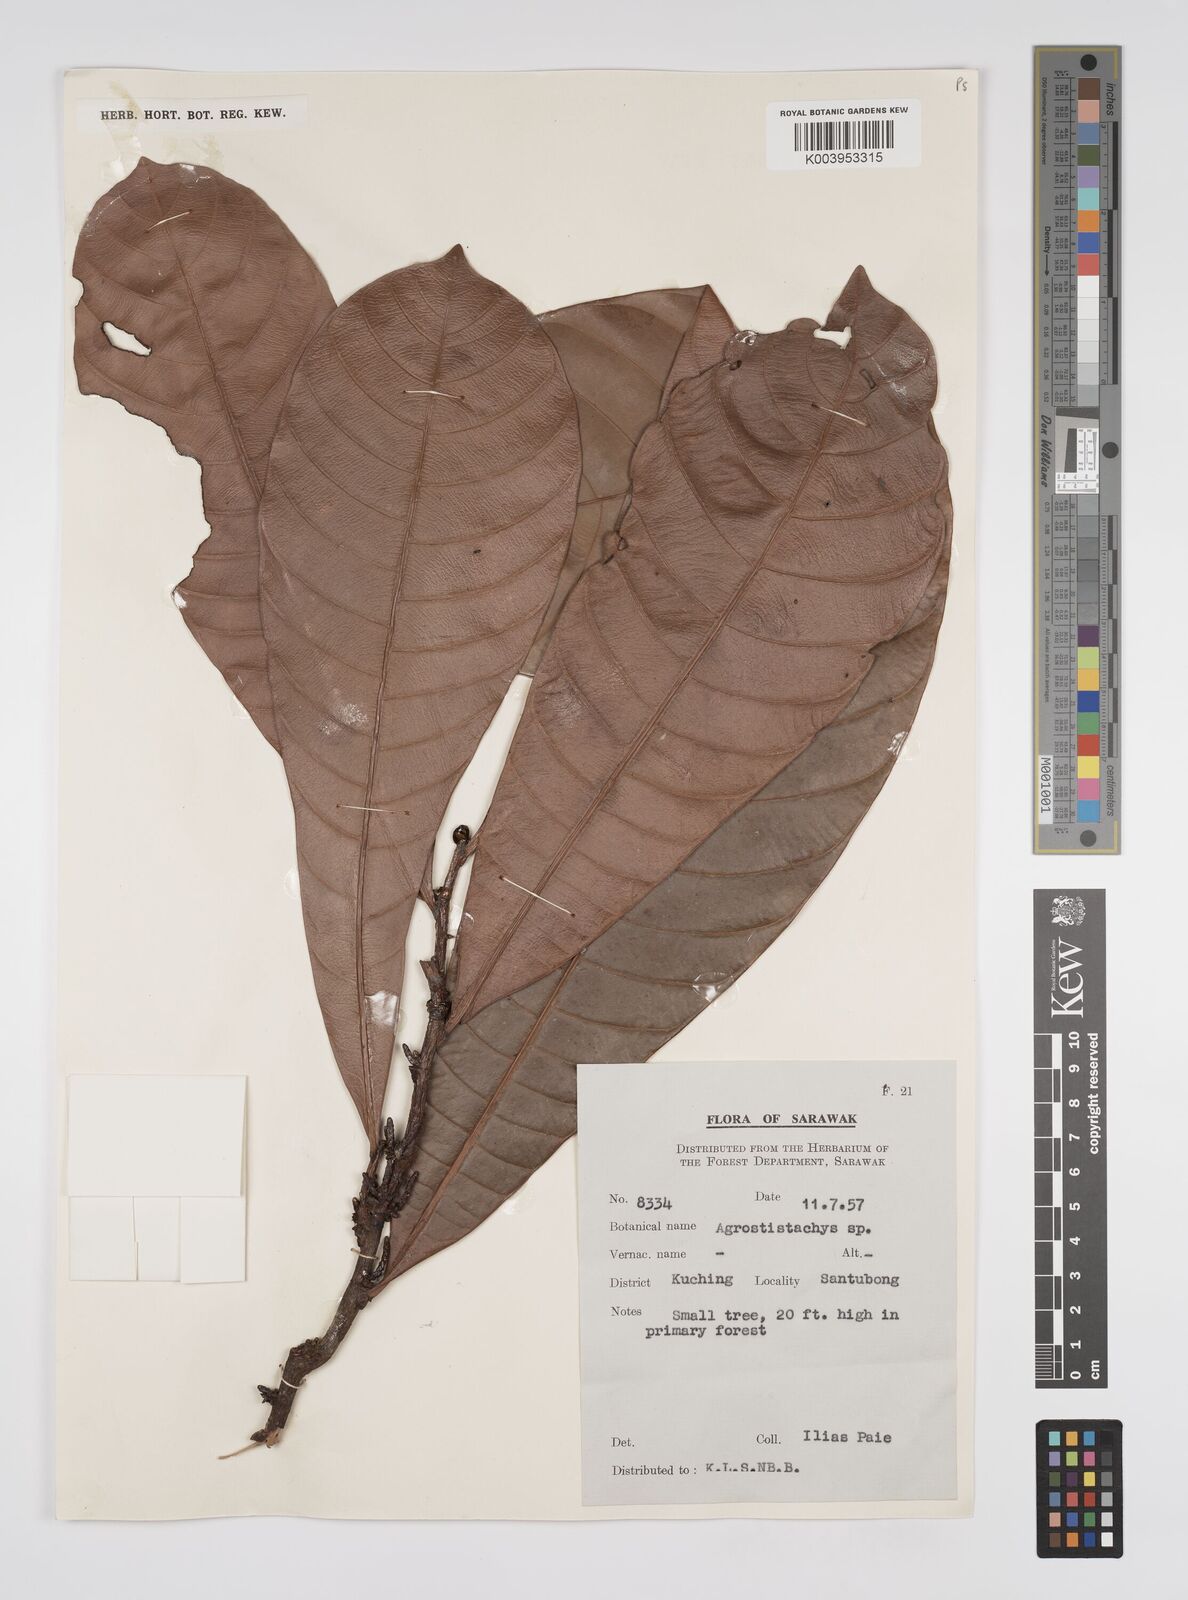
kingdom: Plantae
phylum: Tracheophyta
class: Magnoliopsida
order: Malpighiales
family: Euphorbiaceae
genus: Agrostistachys
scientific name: Agrostistachys
